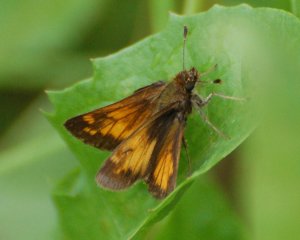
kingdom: Animalia
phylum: Arthropoda
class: Insecta
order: Lepidoptera
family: Hesperiidae
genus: Lon
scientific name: Lon hobomok
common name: Hobomok Skipper
